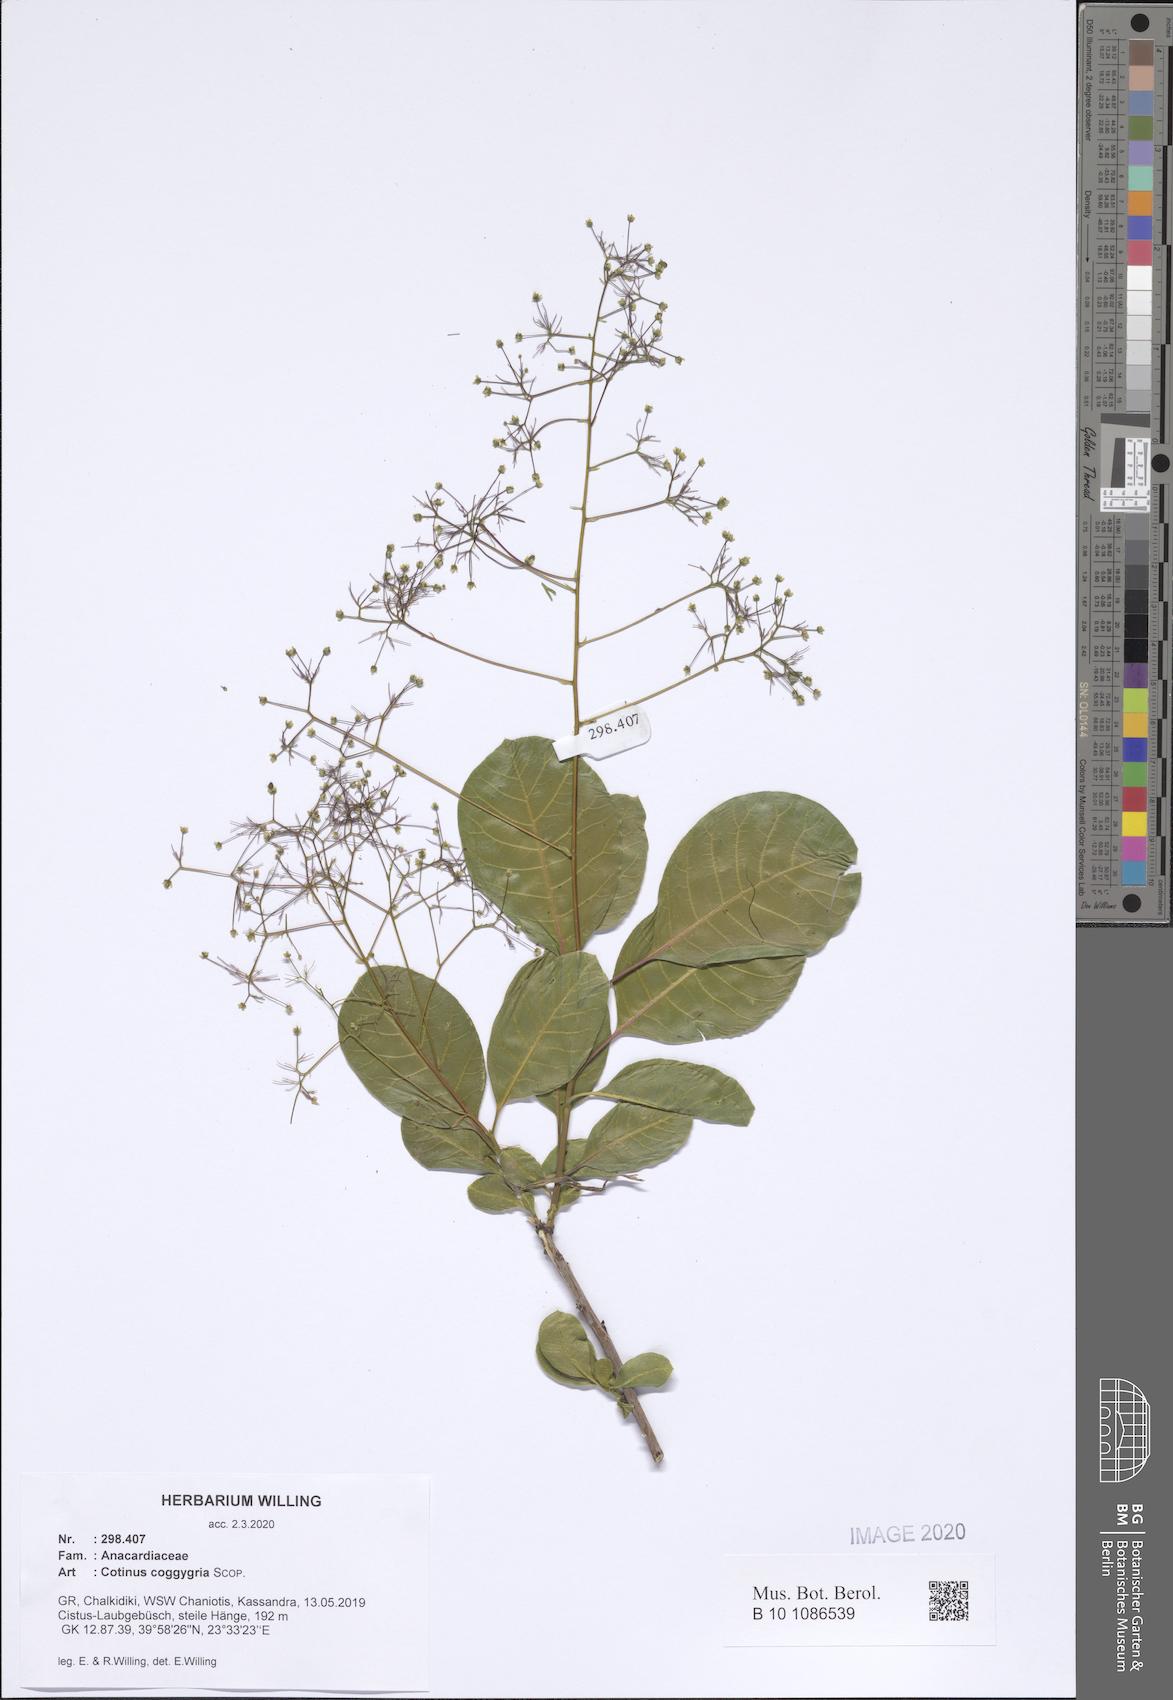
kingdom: Plantae
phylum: Tracheophyta
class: Magnoliopsida
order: Sapindales
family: Anacardiaceae
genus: Cotinus
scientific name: Cotinus coggygria
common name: Smoke-tree
